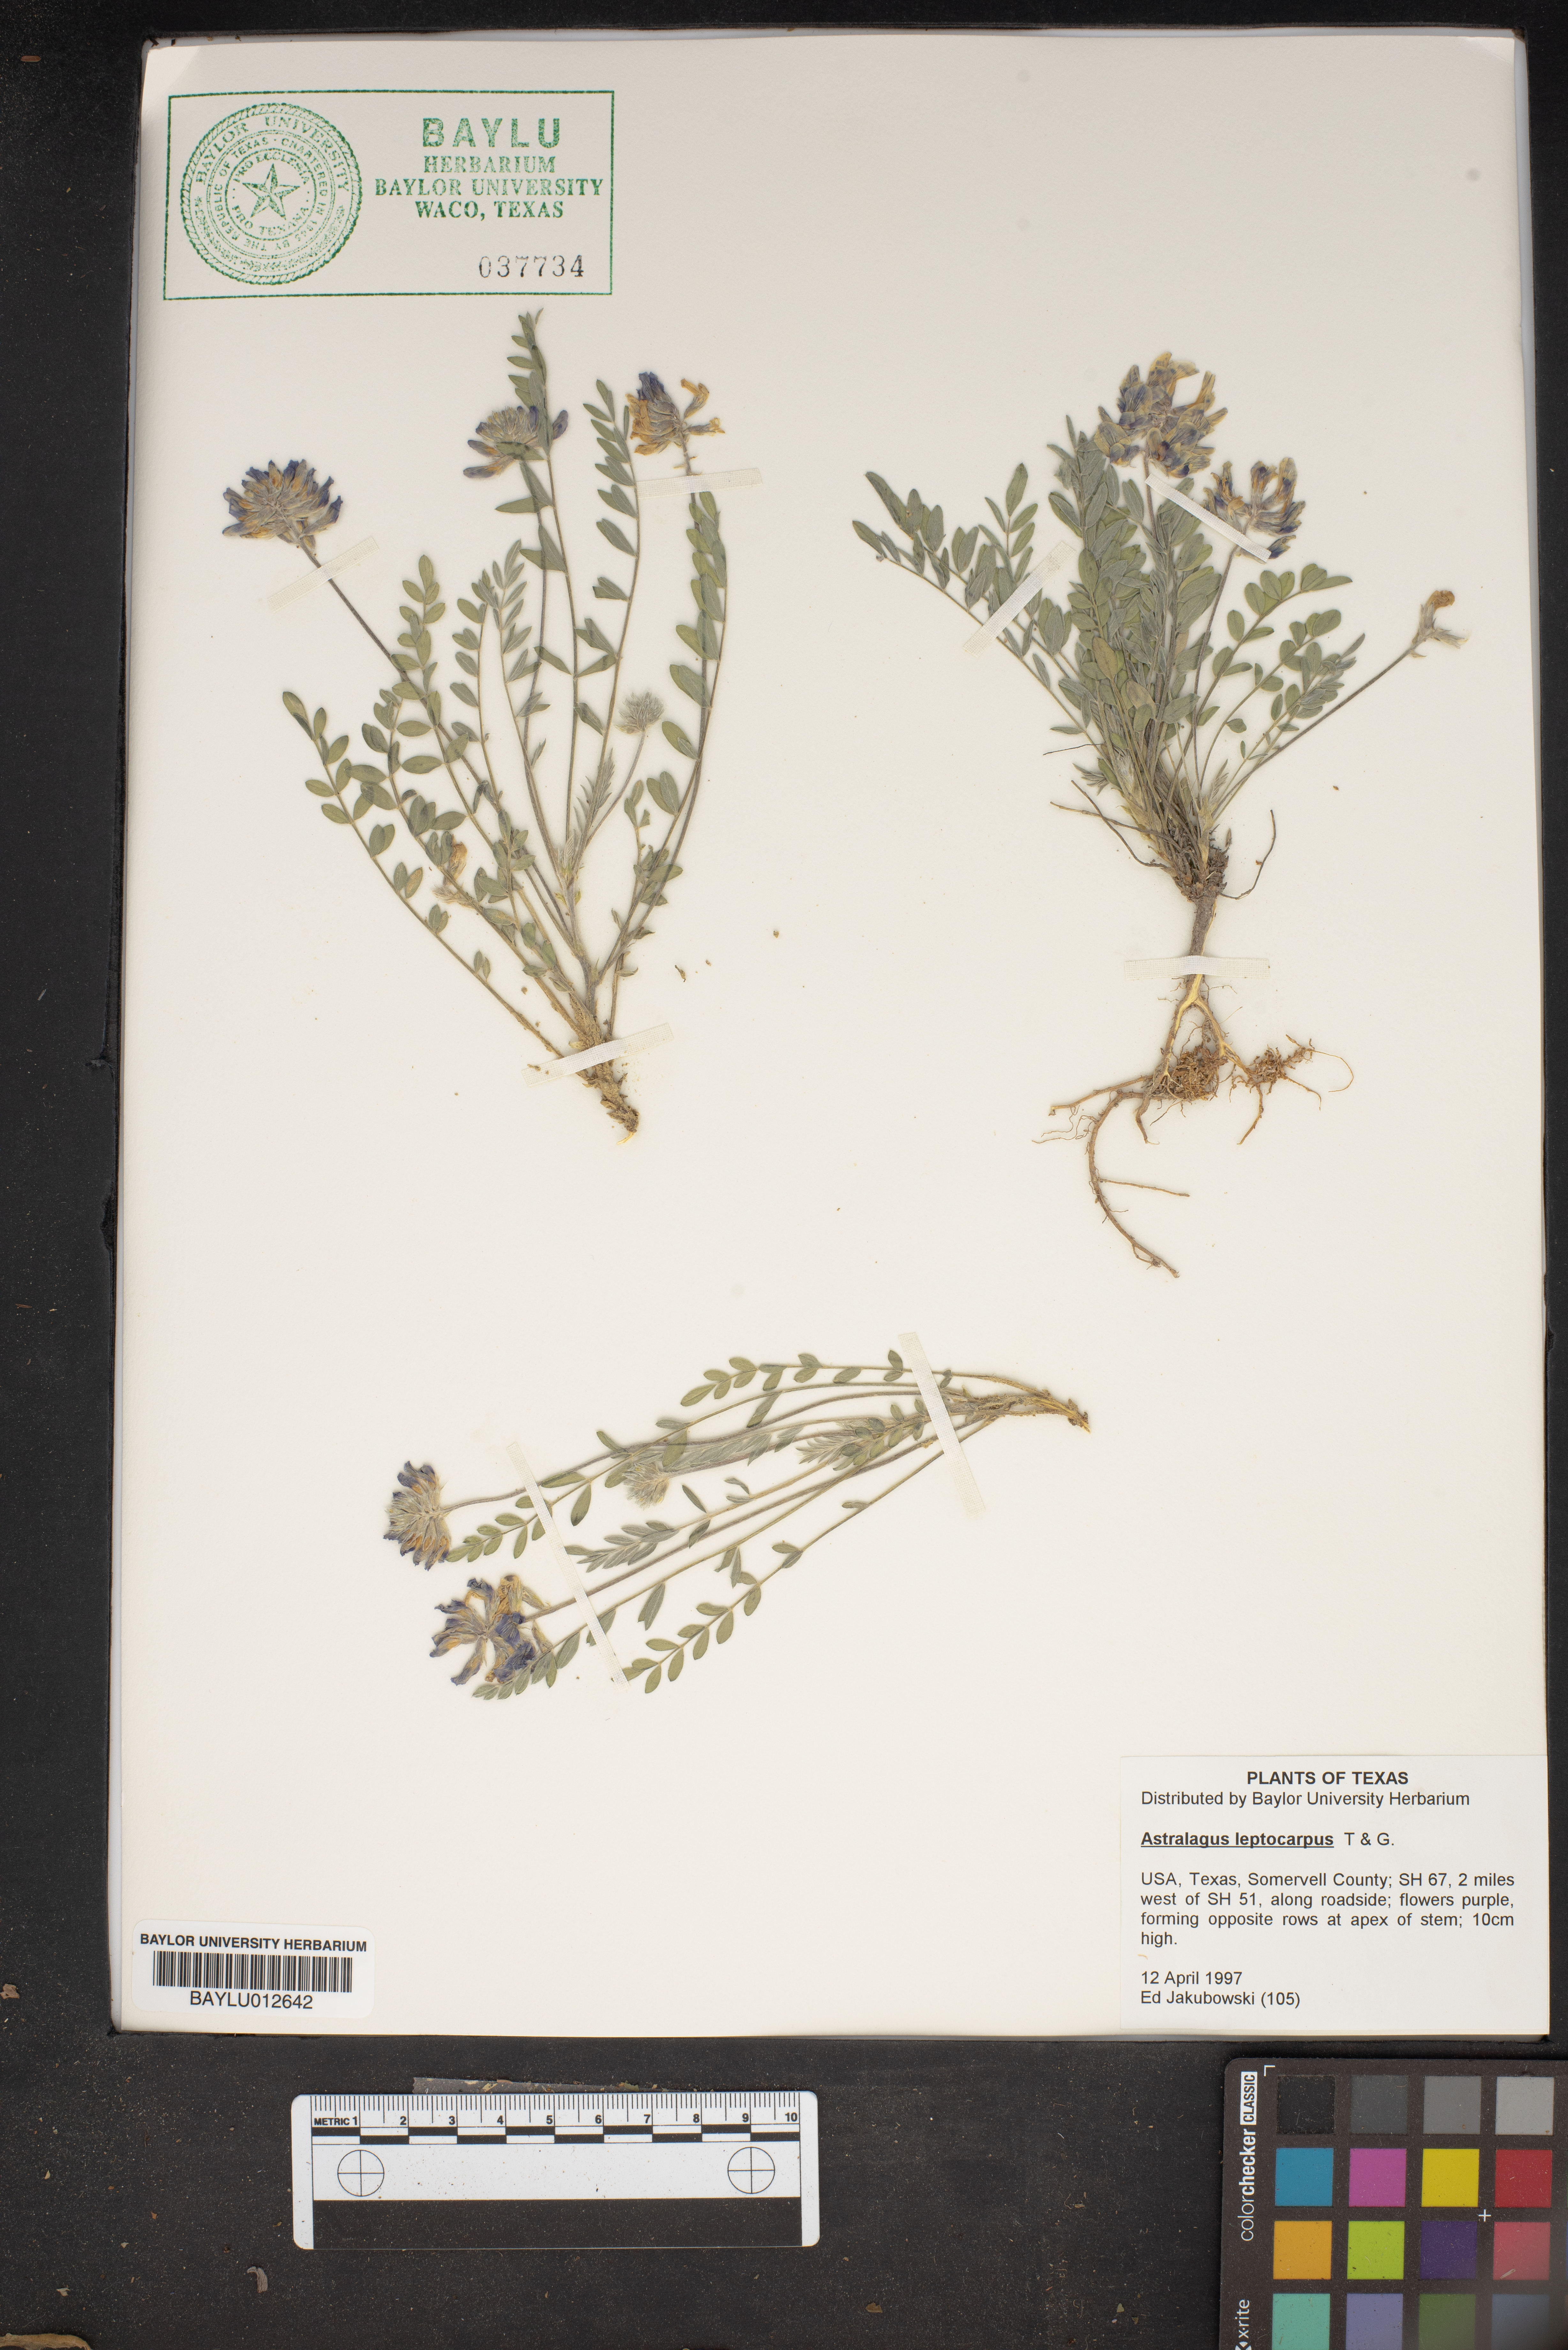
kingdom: Plantae
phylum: Tracheophyta
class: Magnoliopsida
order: Fabales
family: Fabaceae
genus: Astragalus
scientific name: Astragalus leptocarpus
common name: Bodkin milk-vetch
